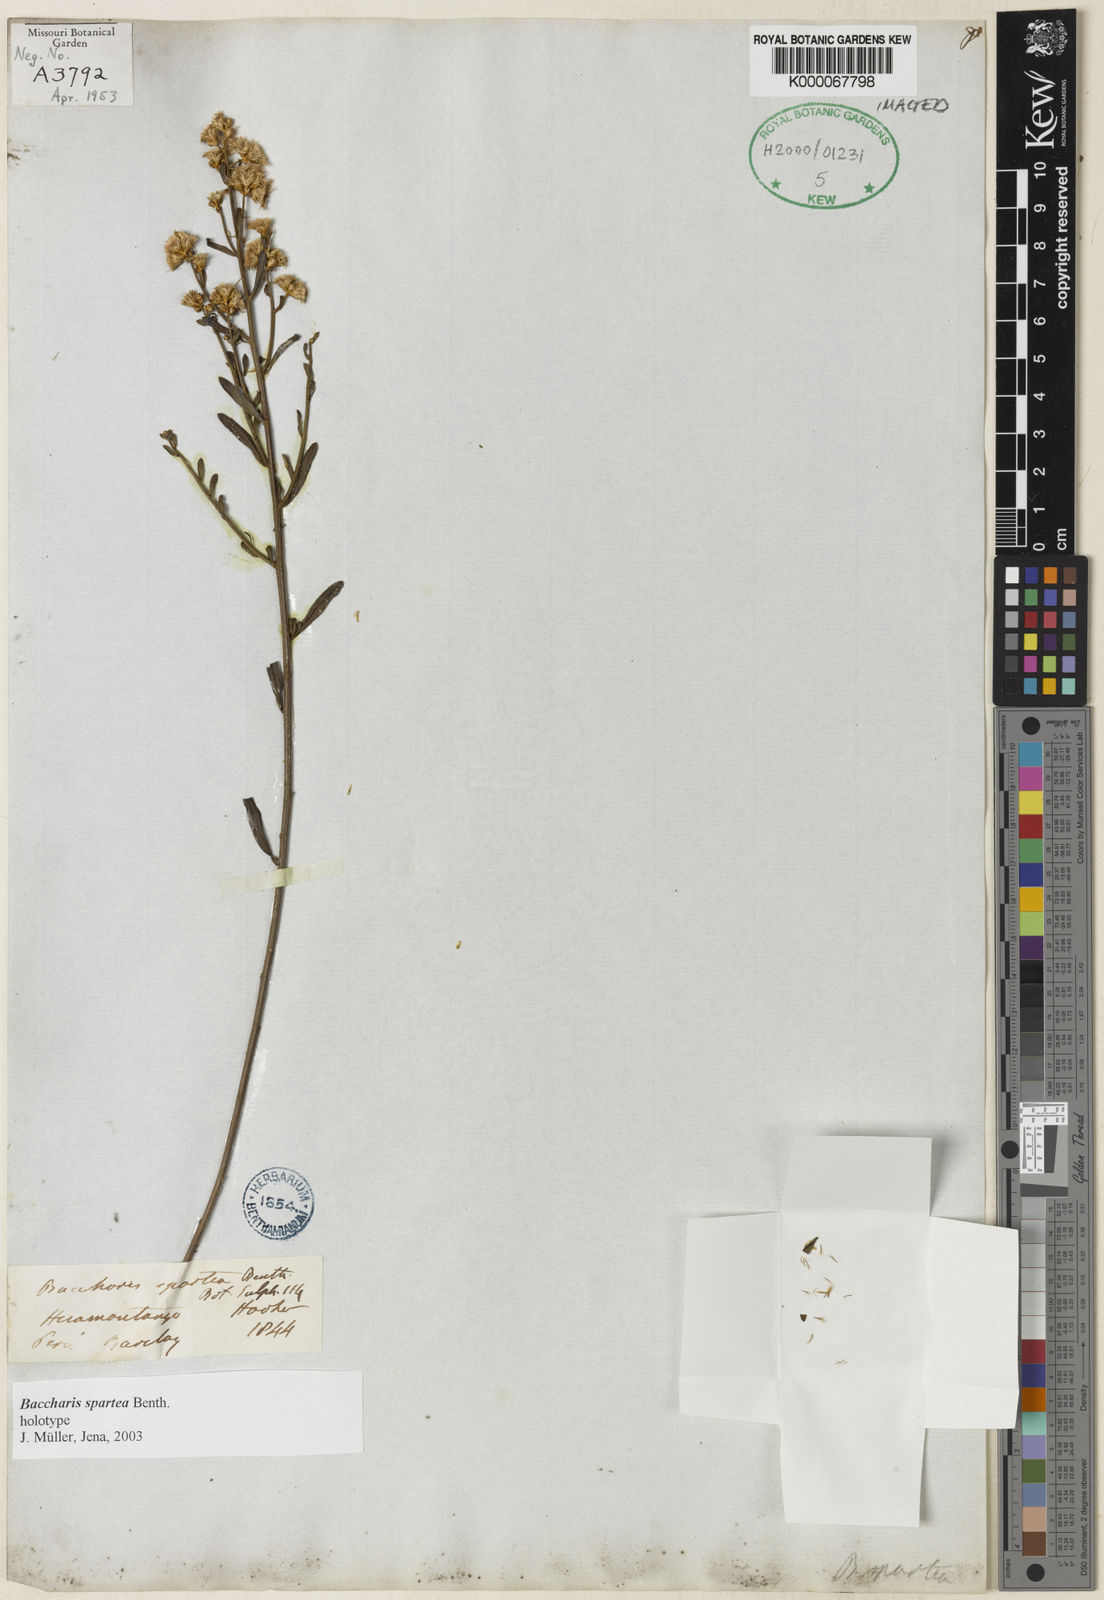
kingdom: Plantae
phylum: Tracheophyta
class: Magnoliopsida
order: Asterales
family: Asteraceae
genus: Baccharis
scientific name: Baccharis spartea
